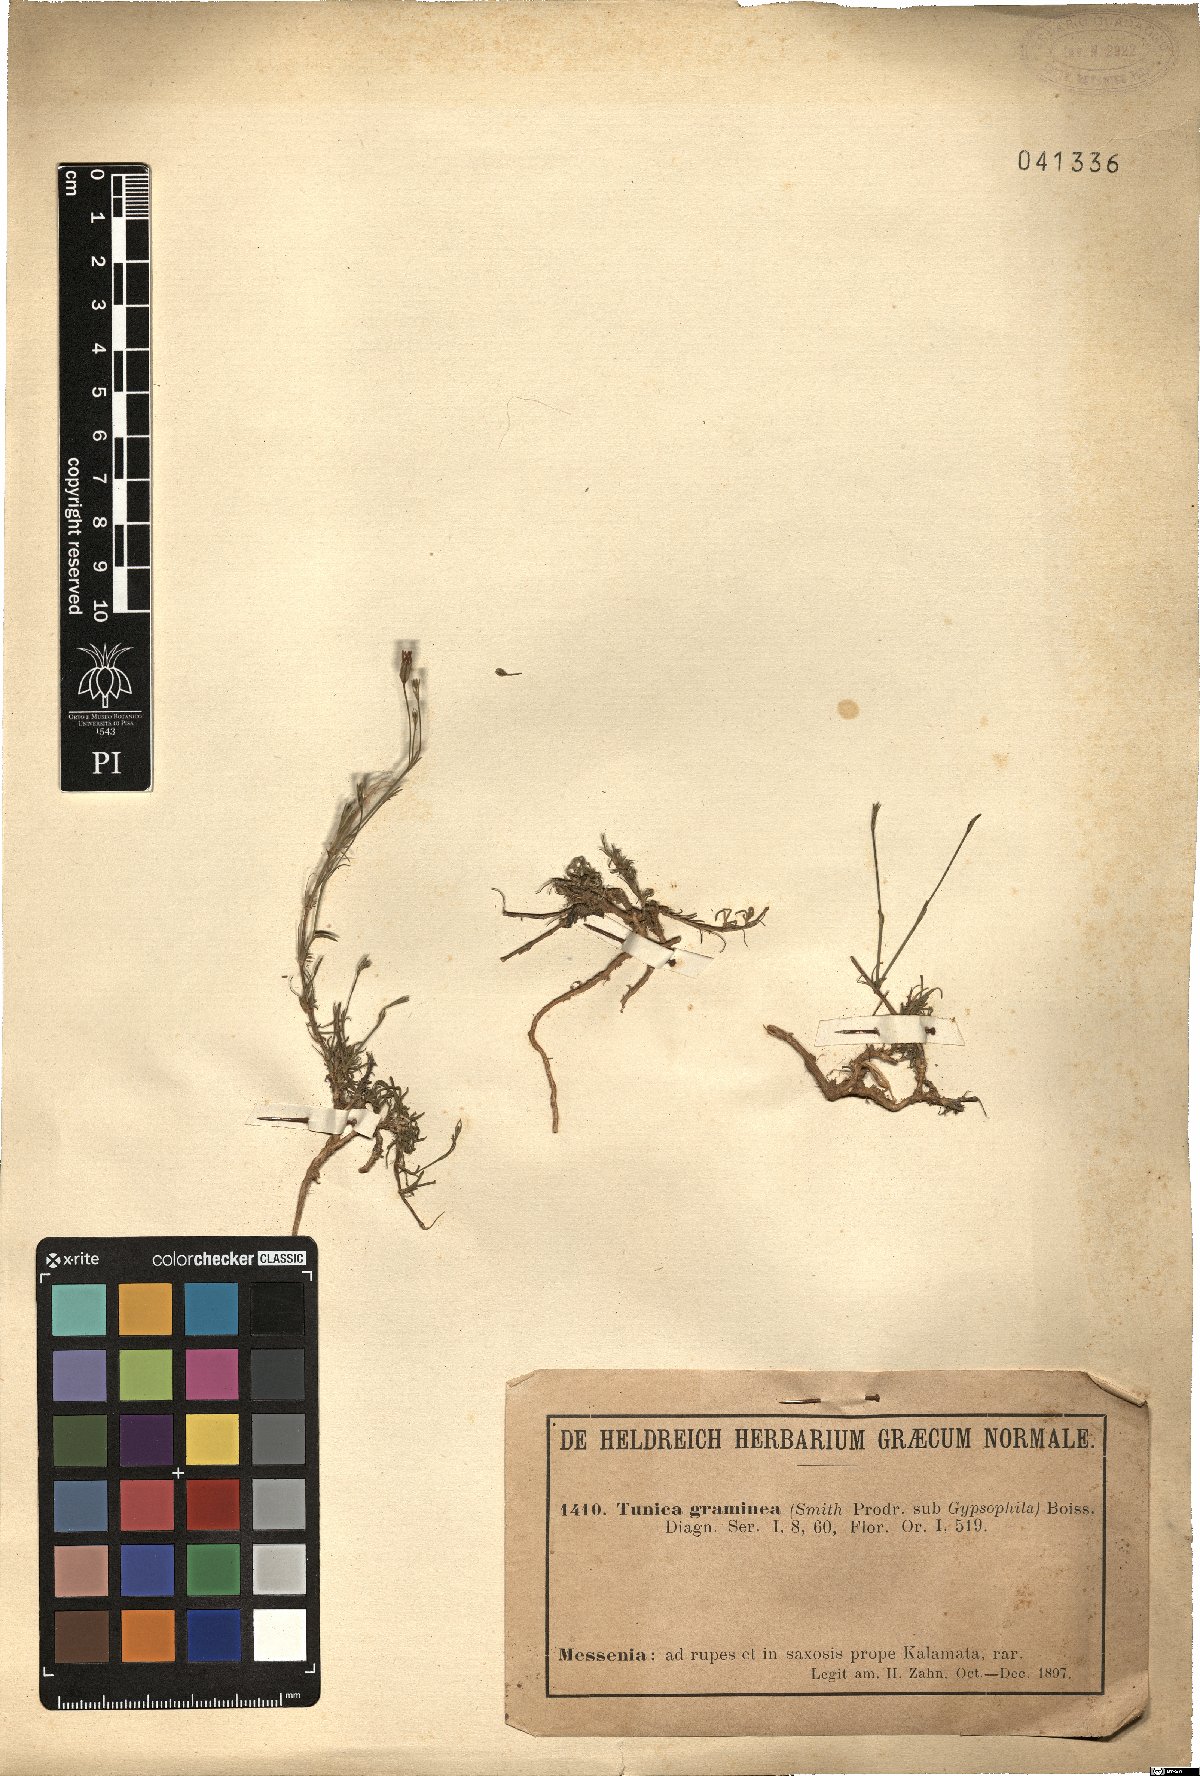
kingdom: Plantae
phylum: Tracheophyta
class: Magnoliopsida
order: Caryophyllales
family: Caryophyllaceae
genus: Petrorhagia
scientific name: Petrorhagia graminea
